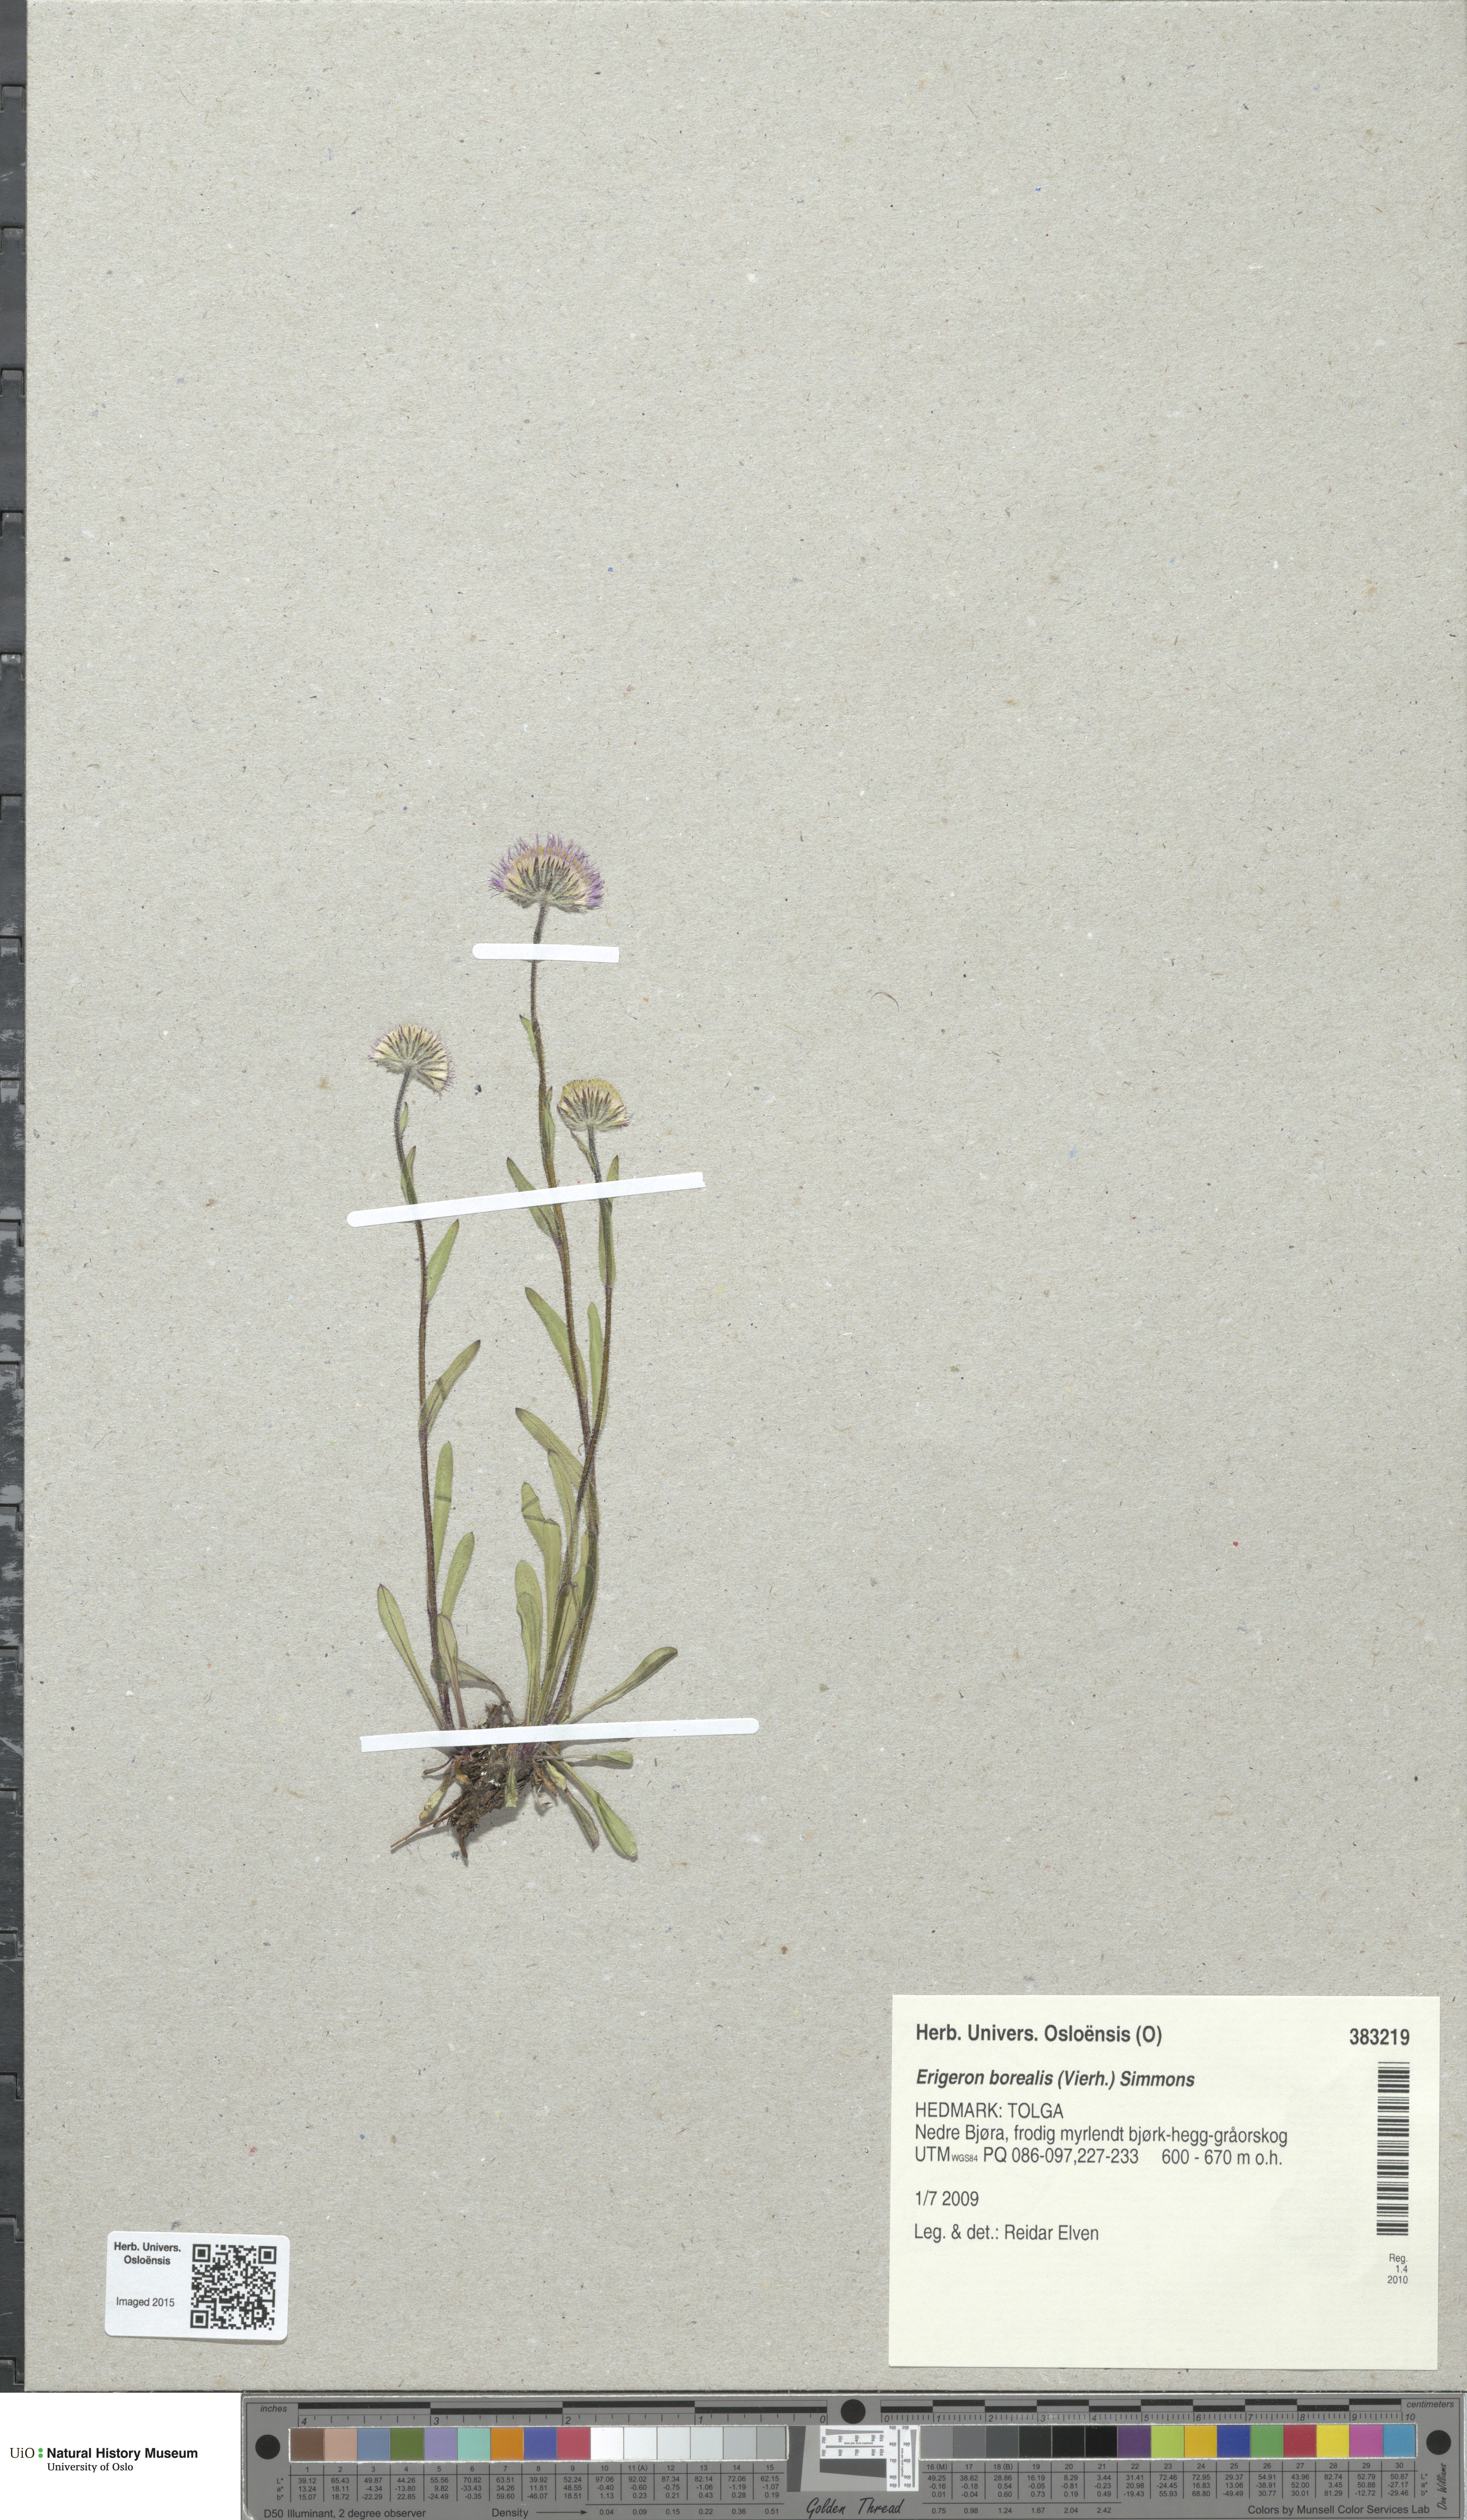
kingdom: Plantae
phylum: Tracheophyta
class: Magnoliopsida
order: Asterales
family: Asteraceae
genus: Erigeron
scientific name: Erigeron borealis
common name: Alpine fleabane
